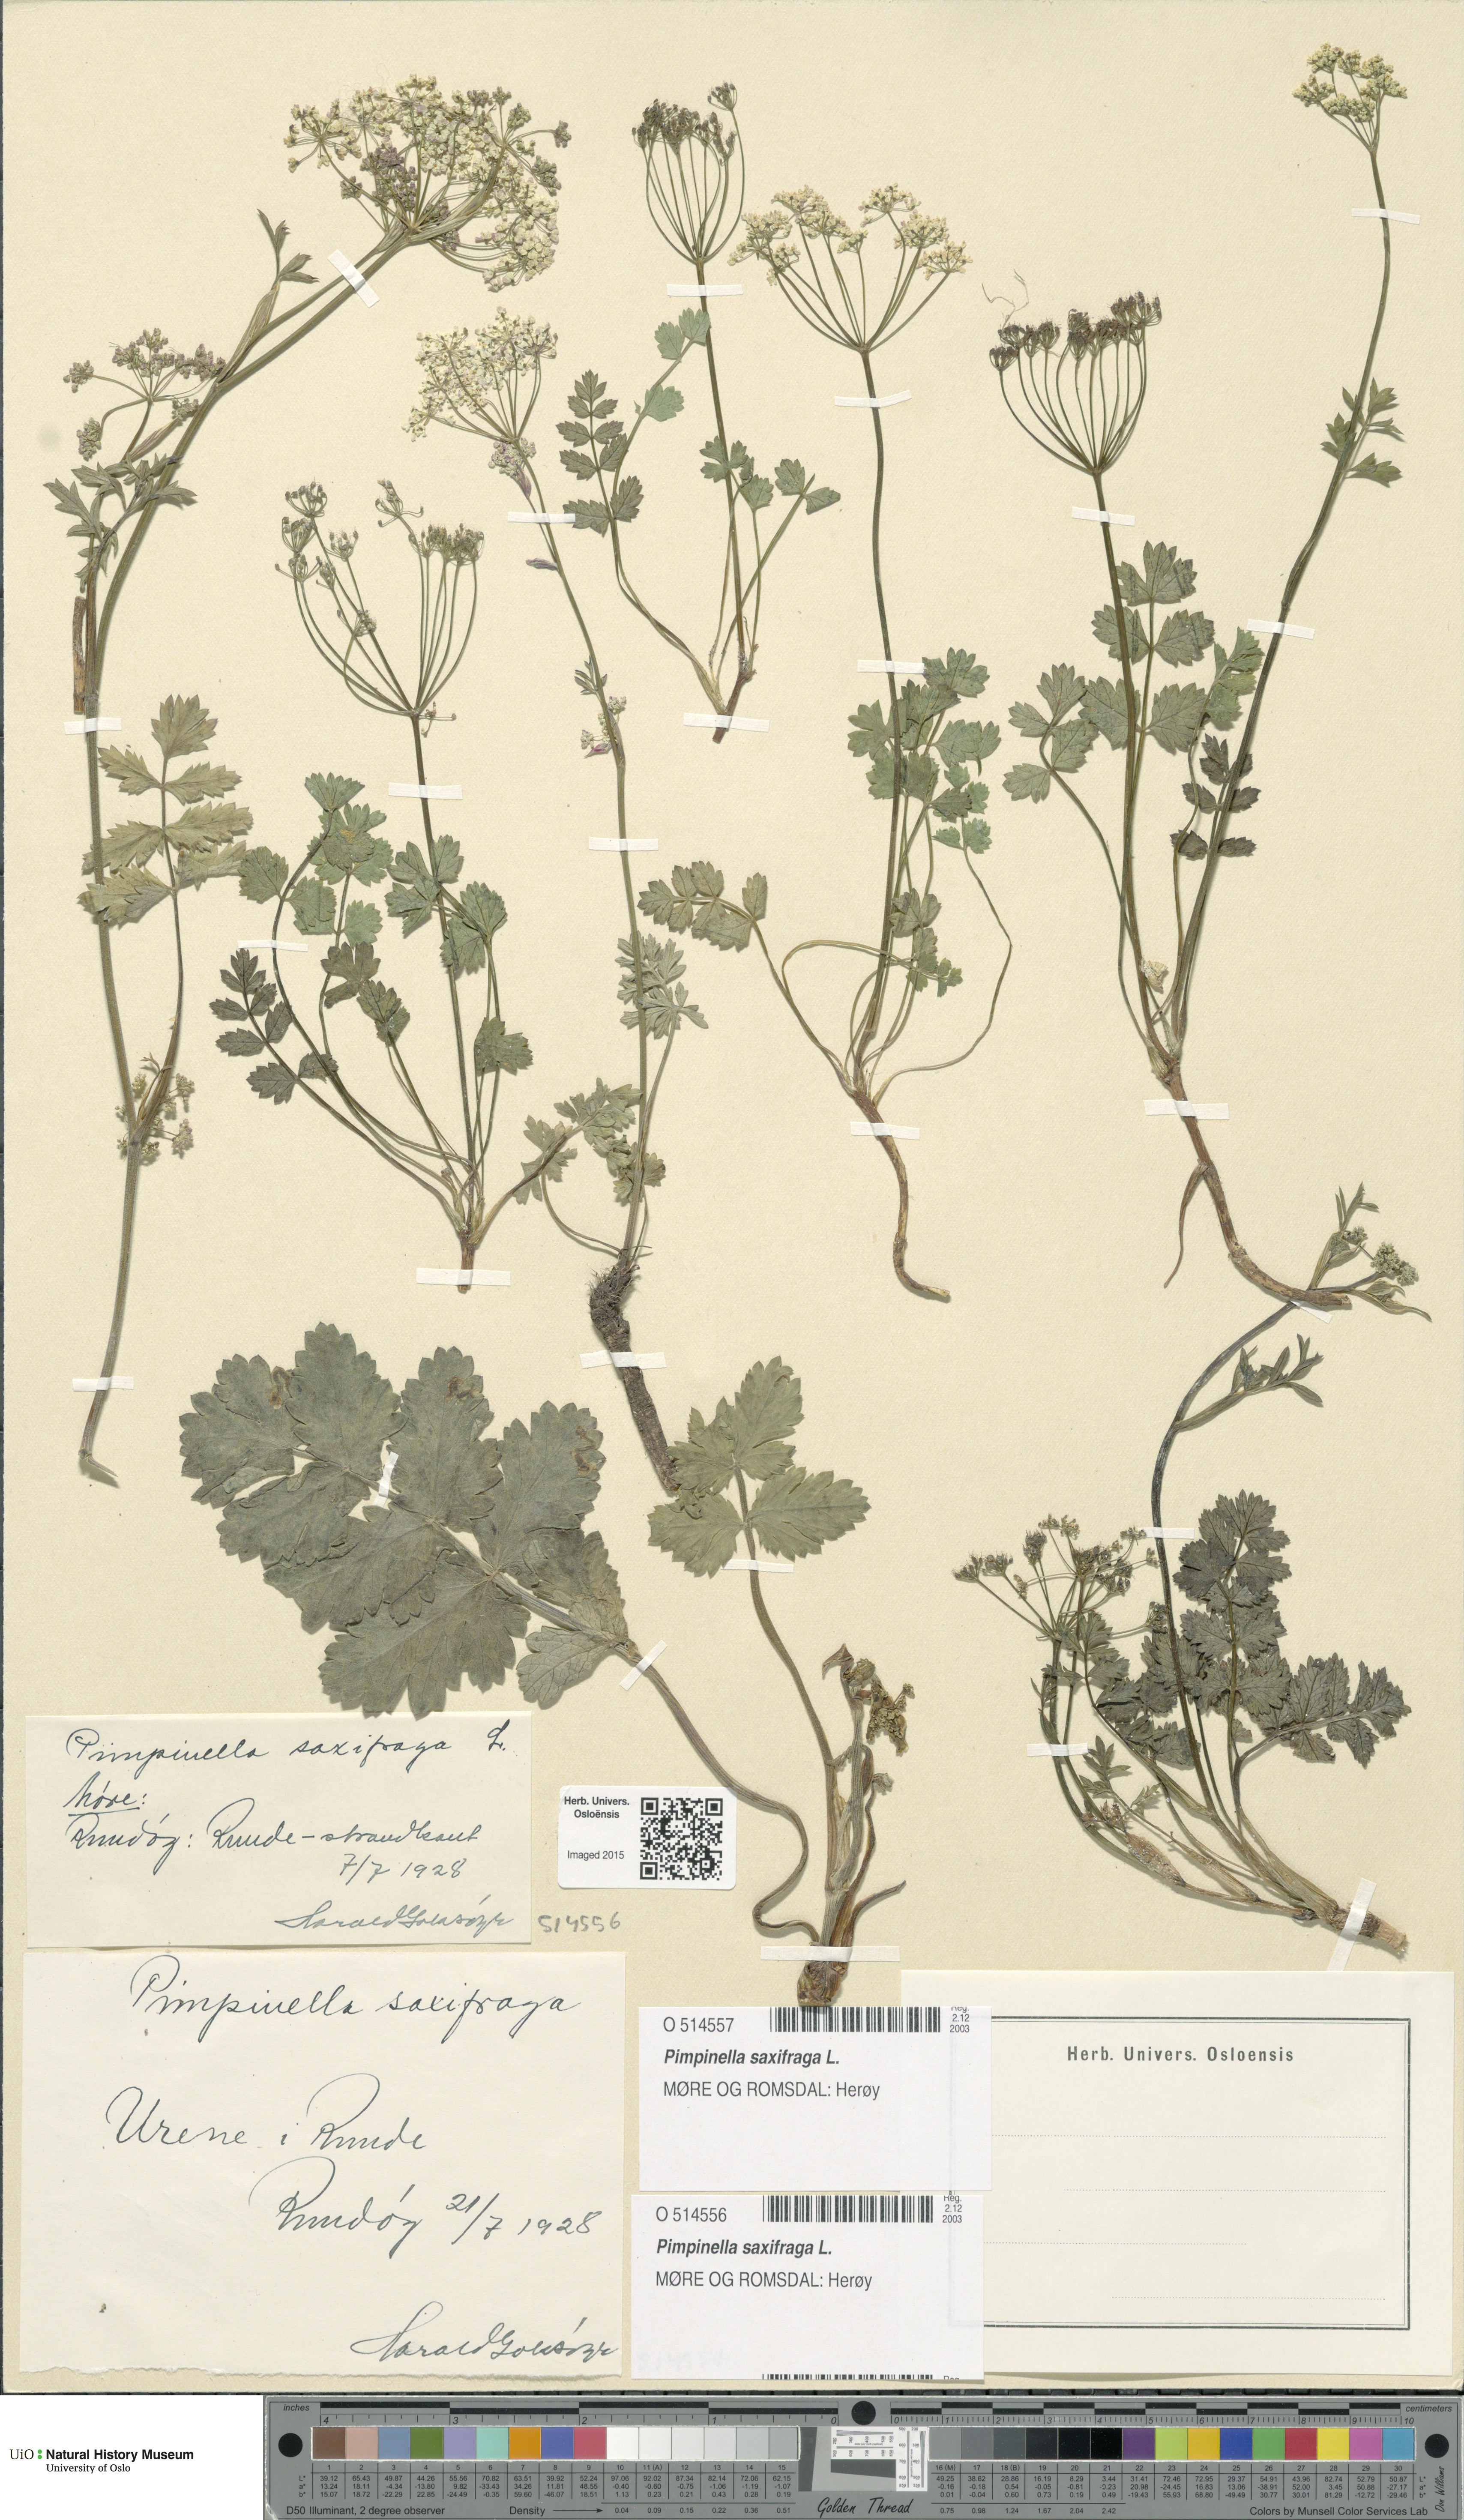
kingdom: Plantae
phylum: Tracheophyta
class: Magnoliopsida
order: Apiales
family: Apiaceae
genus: Pimpinella
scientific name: Pimpinella saxifraga
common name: Burnet-saxifrage
